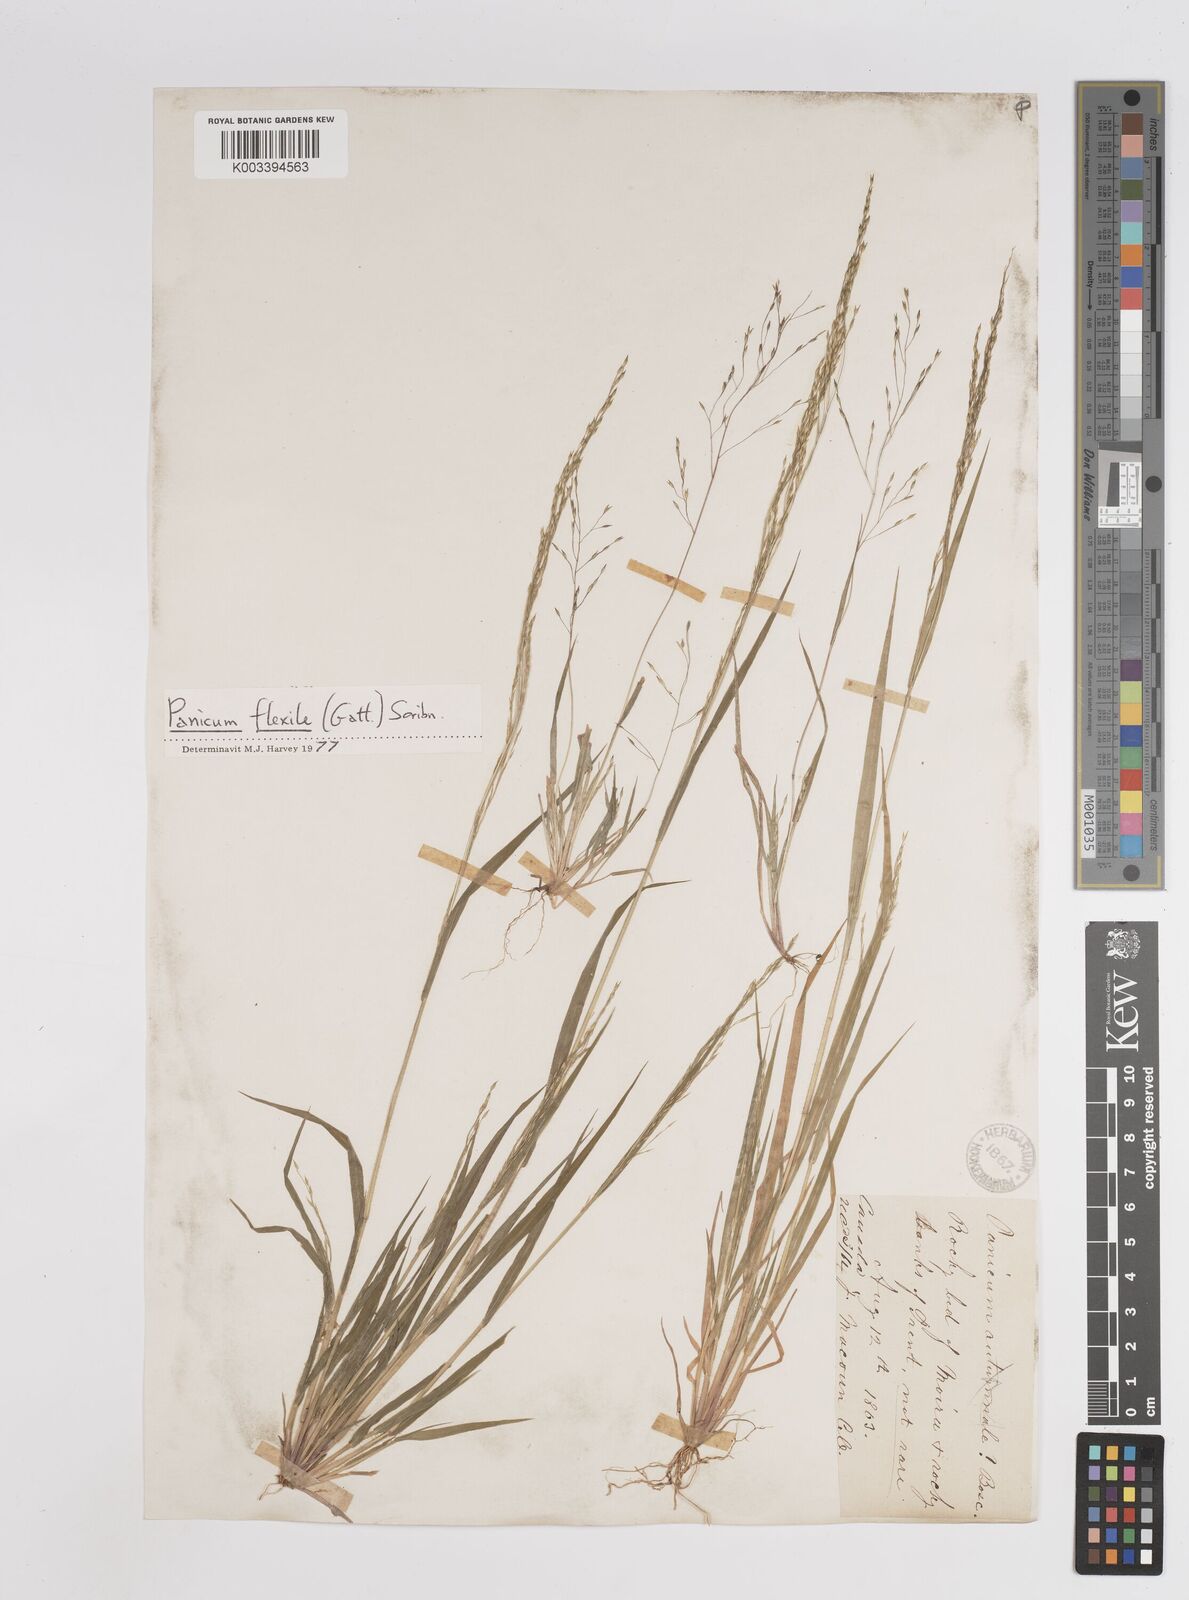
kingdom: Plantae
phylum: Tracheophyta
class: Liliopsida
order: Poales
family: Poaceae
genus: Panicum
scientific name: Panicum flexile
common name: Wiry panicgrass
